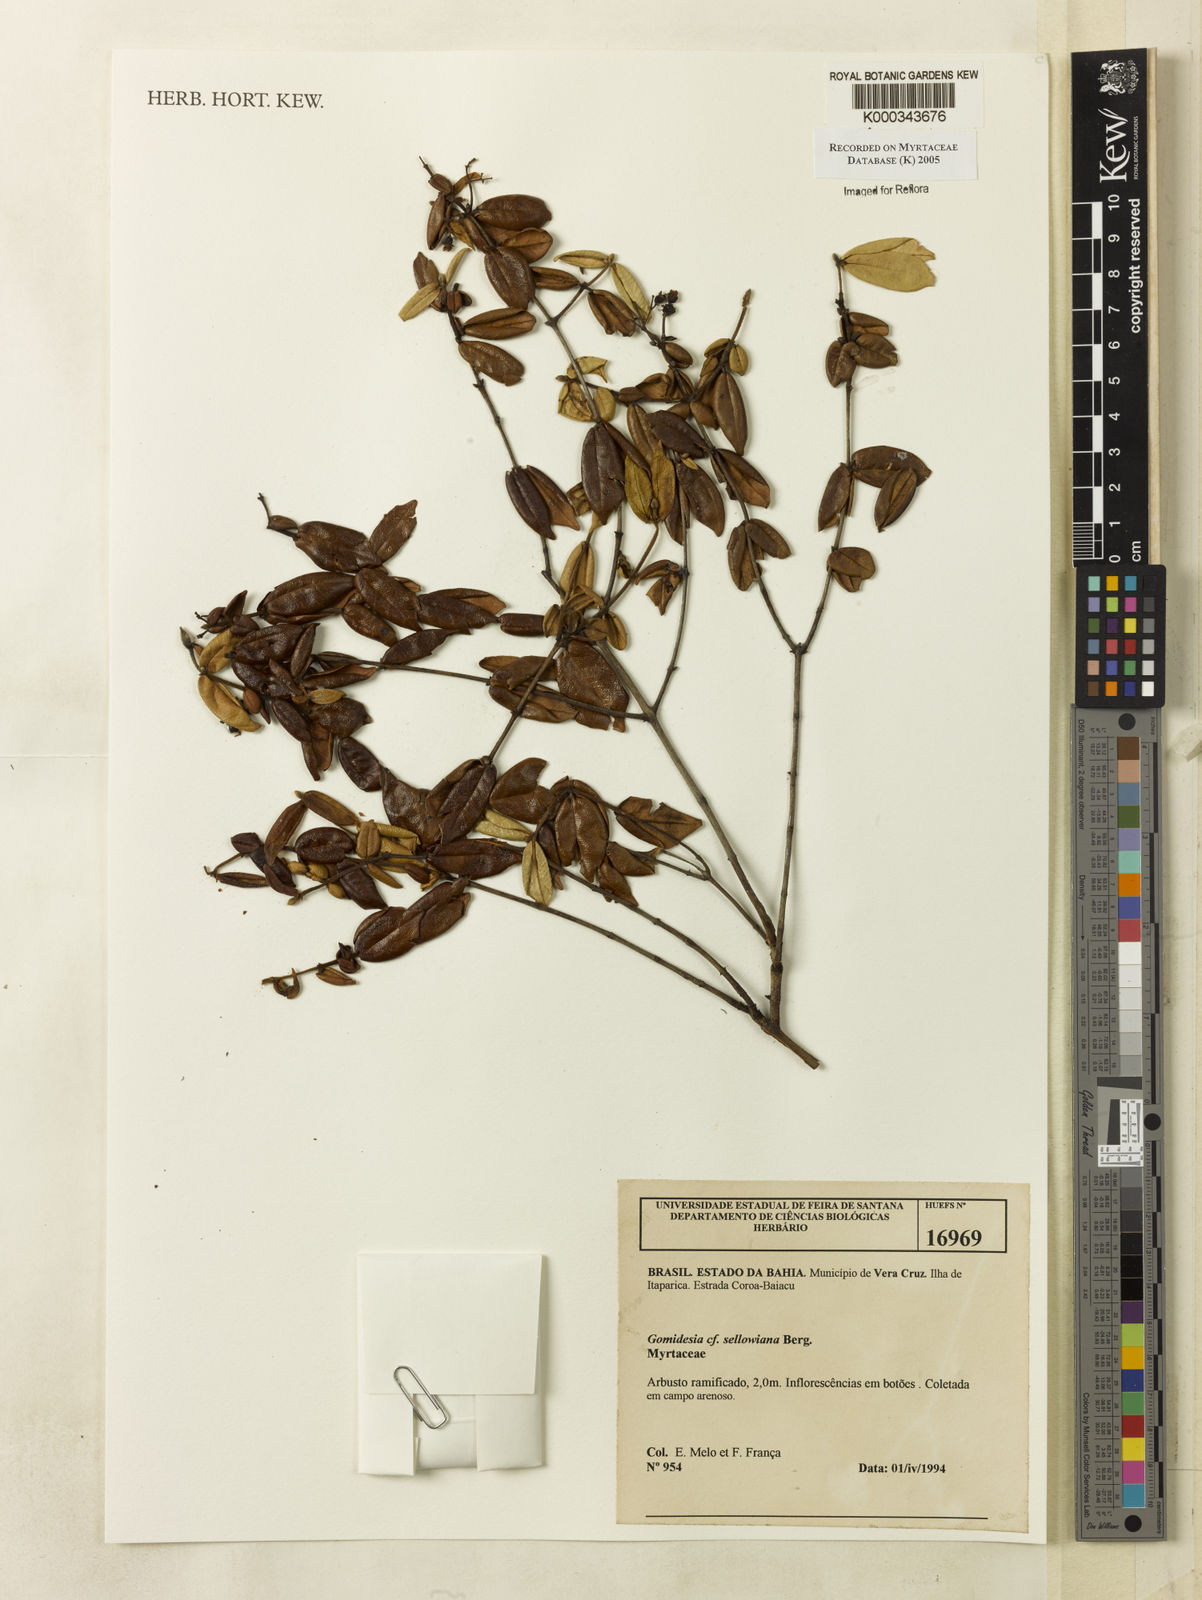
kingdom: Plantae
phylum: Tracheophyta
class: Magnoliopsida
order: Myrtales
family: Myrtaceae
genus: Myrcia
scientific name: Myrcia hartwegiana
